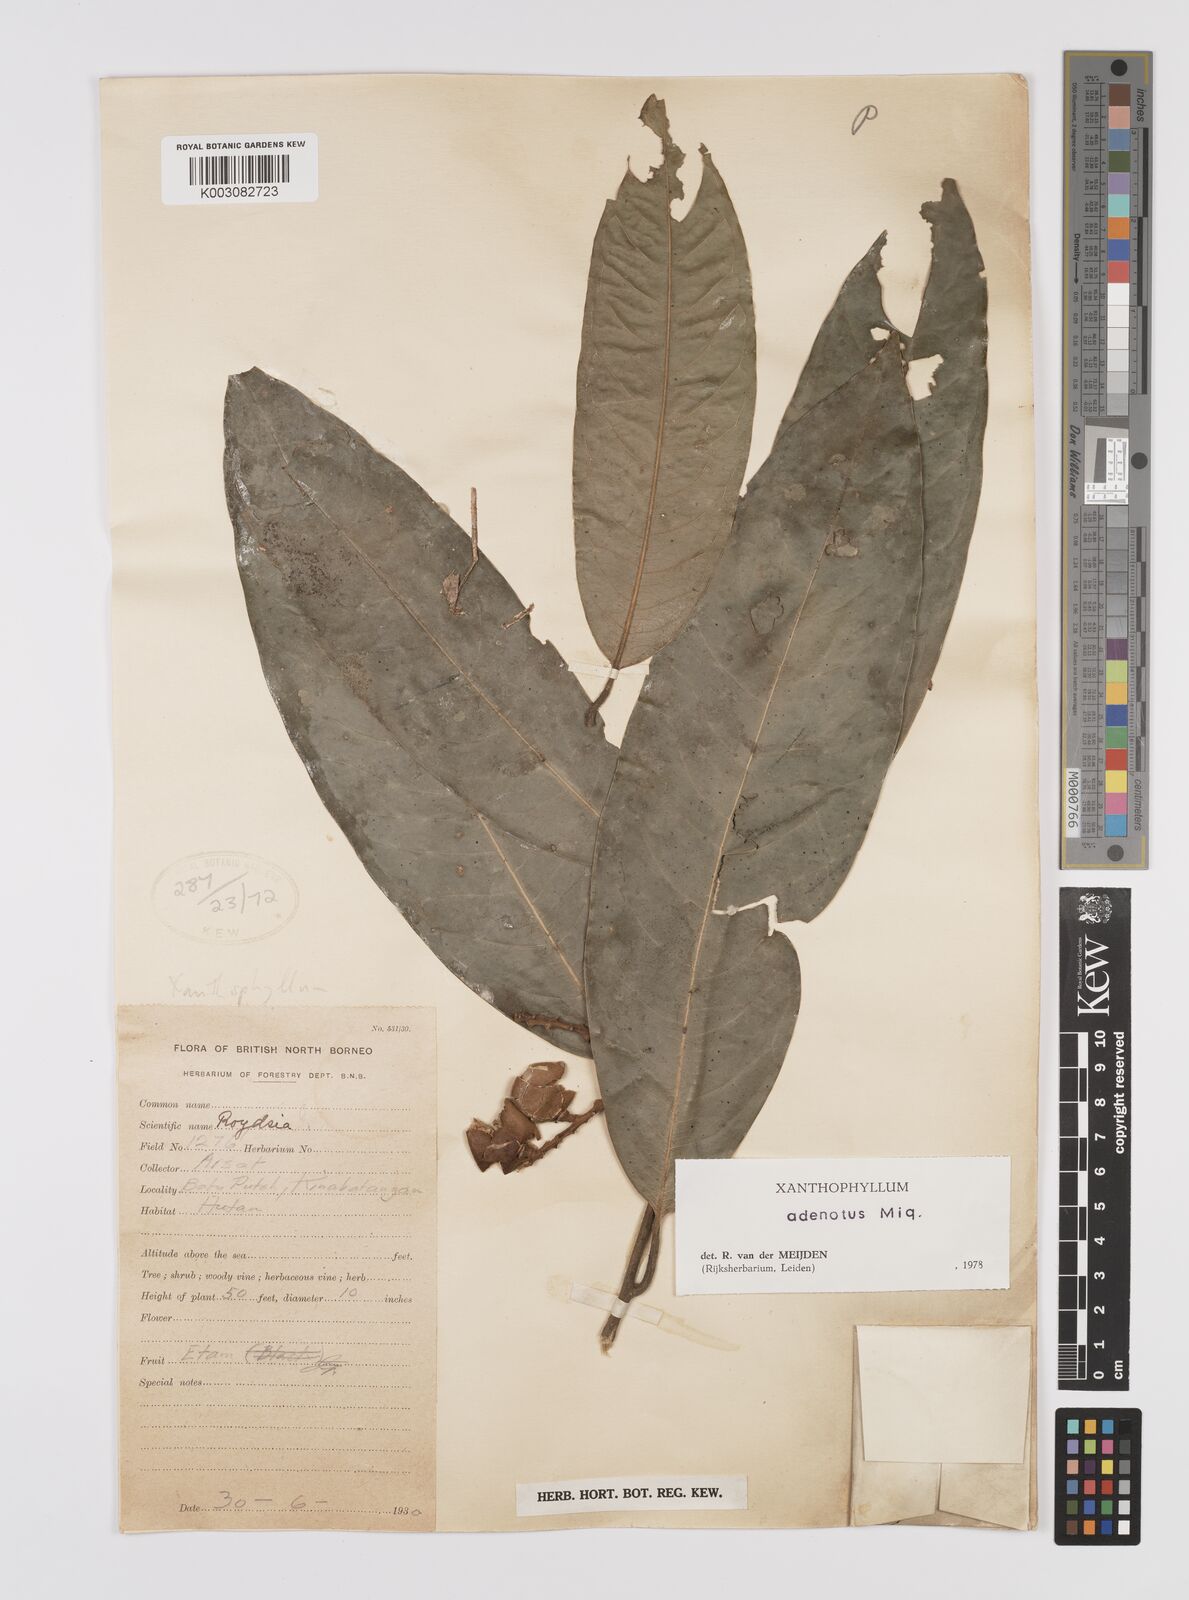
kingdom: Plantae
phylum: Tracheophyta
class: Magnoliopsida
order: Fabales
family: Polygalaceae
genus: Xanthophyllum
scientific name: Xanthophyllum adenotus
